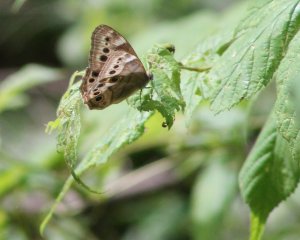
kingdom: Animalia
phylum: Arthropoda
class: Insecta
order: Lepidoptera
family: Nymphalidae
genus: Lethe
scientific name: Lethe anthedon
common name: Northern Pearly-Eye
